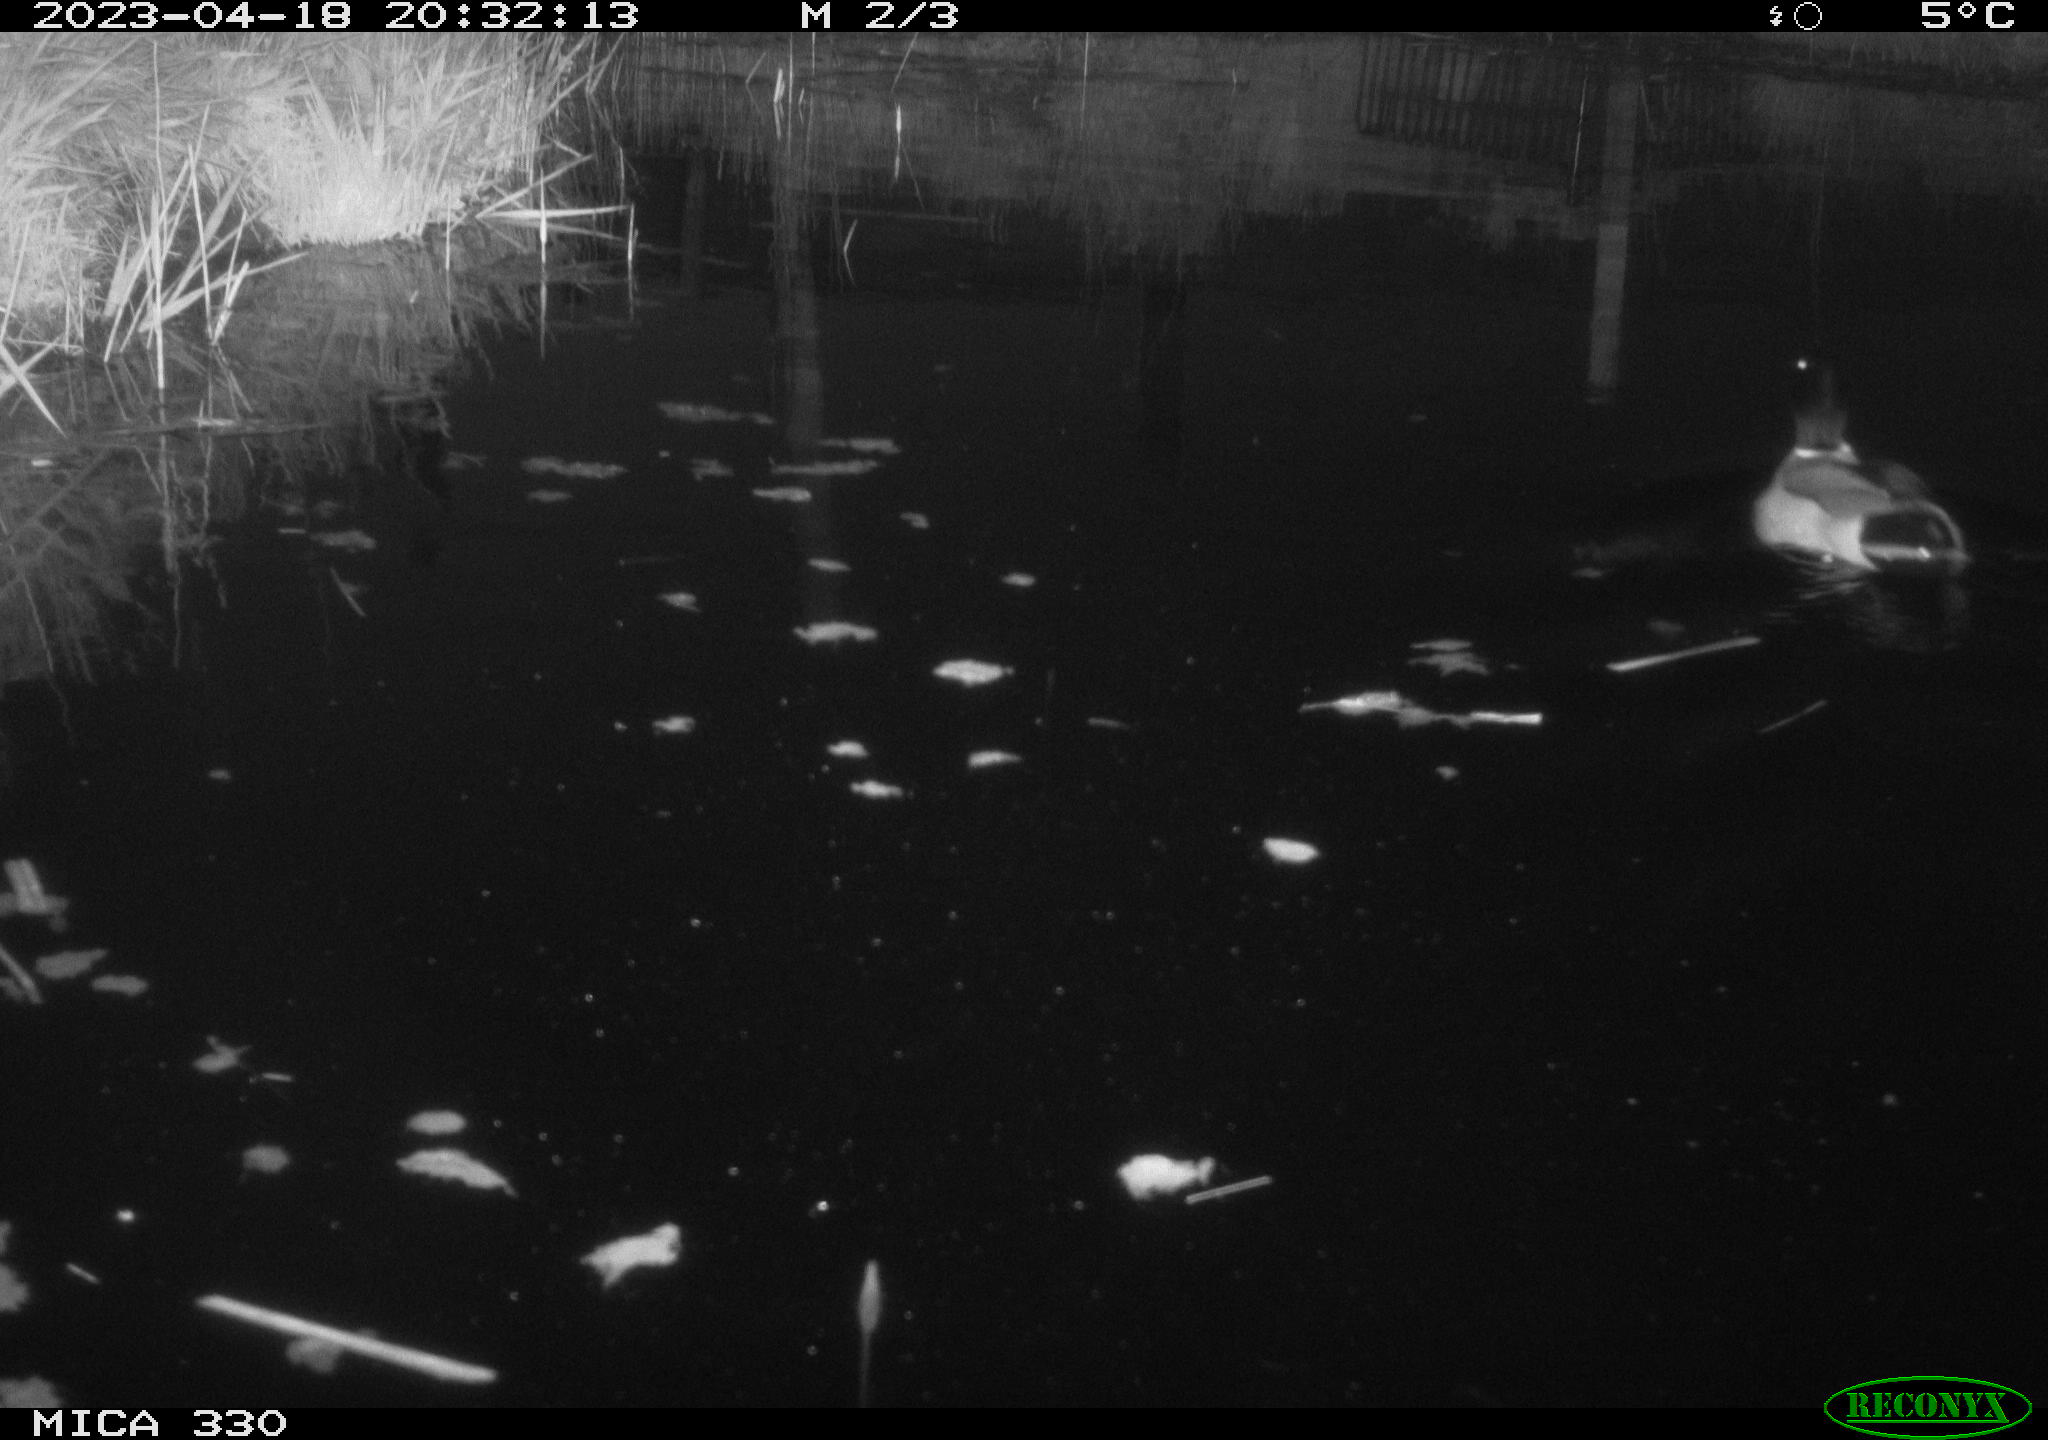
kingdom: Animalia
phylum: Chordata
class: Aves
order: Anseriformes
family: Anatidae
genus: Anas
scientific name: Anas
